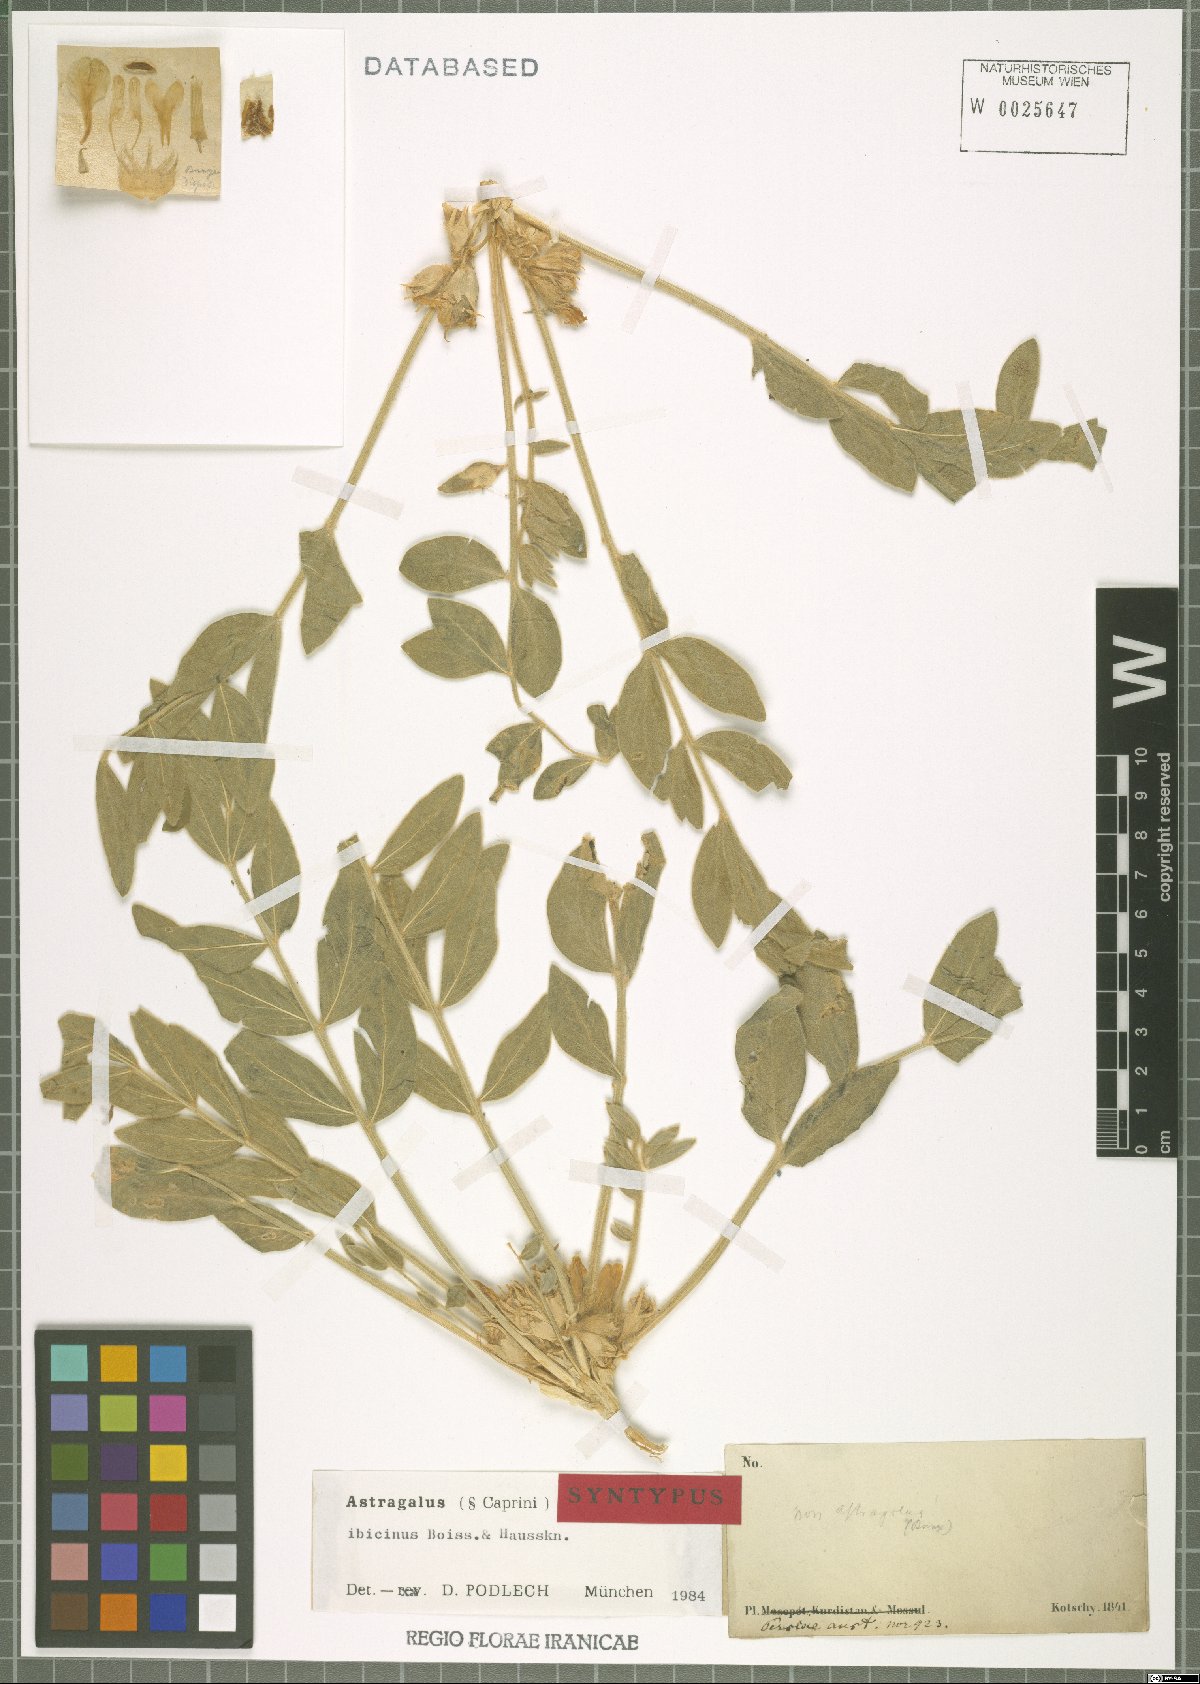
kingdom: Plantae
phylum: Tracheophyta
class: Magnoliopsida
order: Fabales
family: Fabaceae
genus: Astragalus
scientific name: Astragalus ibicinus
